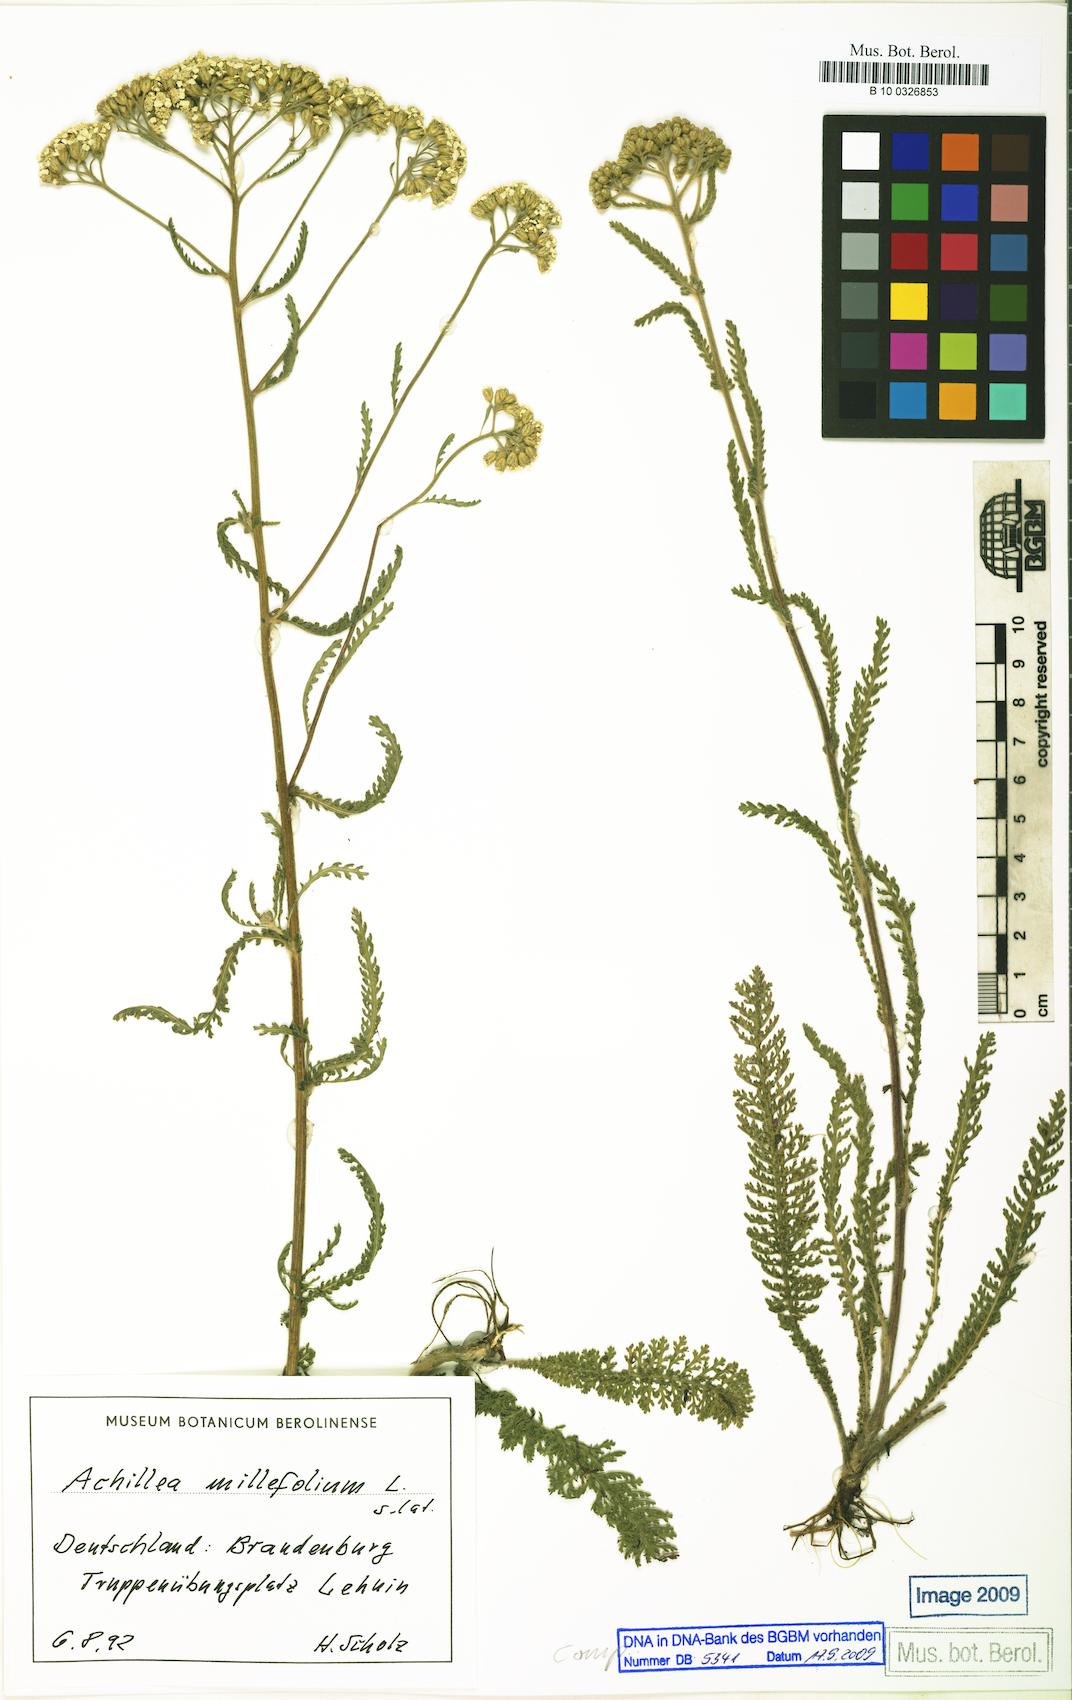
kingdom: Plantae
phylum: Tracheophyta
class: Magnoliopsida
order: Asterales
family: Asteraceae
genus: Achillea
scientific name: Achillea millefolium
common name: Yarrow
